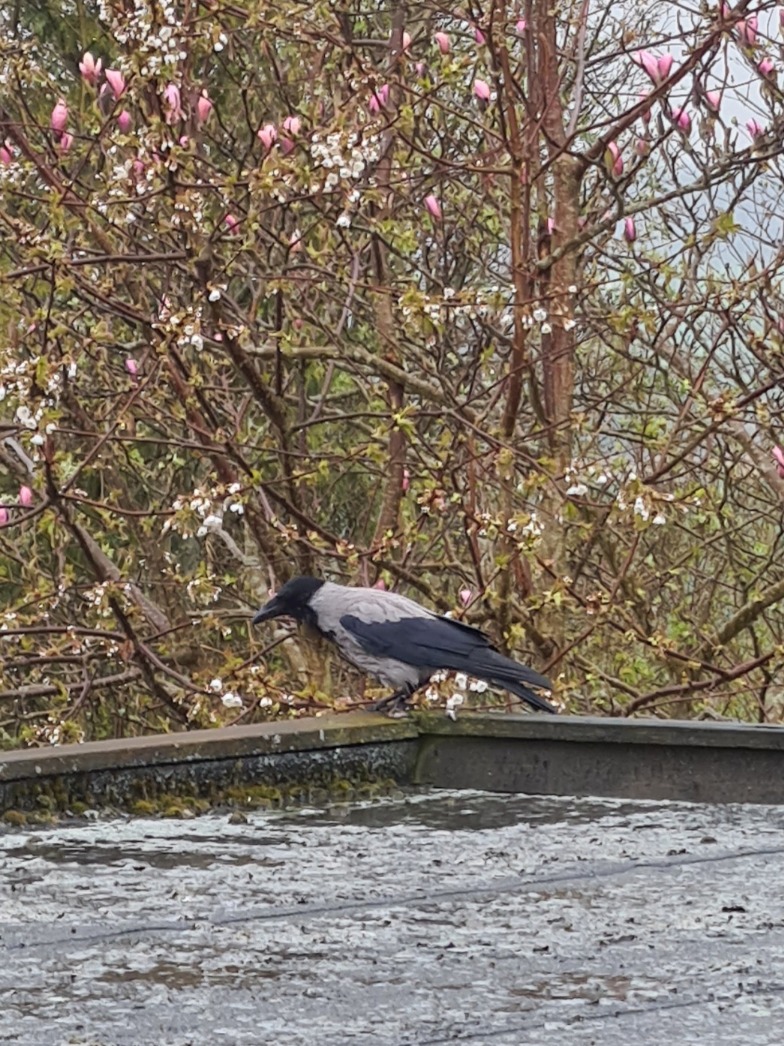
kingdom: Animalia
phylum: Chordata
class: Aves
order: Passeriformes
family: Corvidae
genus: Corvus
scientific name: Corvus cornix
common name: Gråkrage
